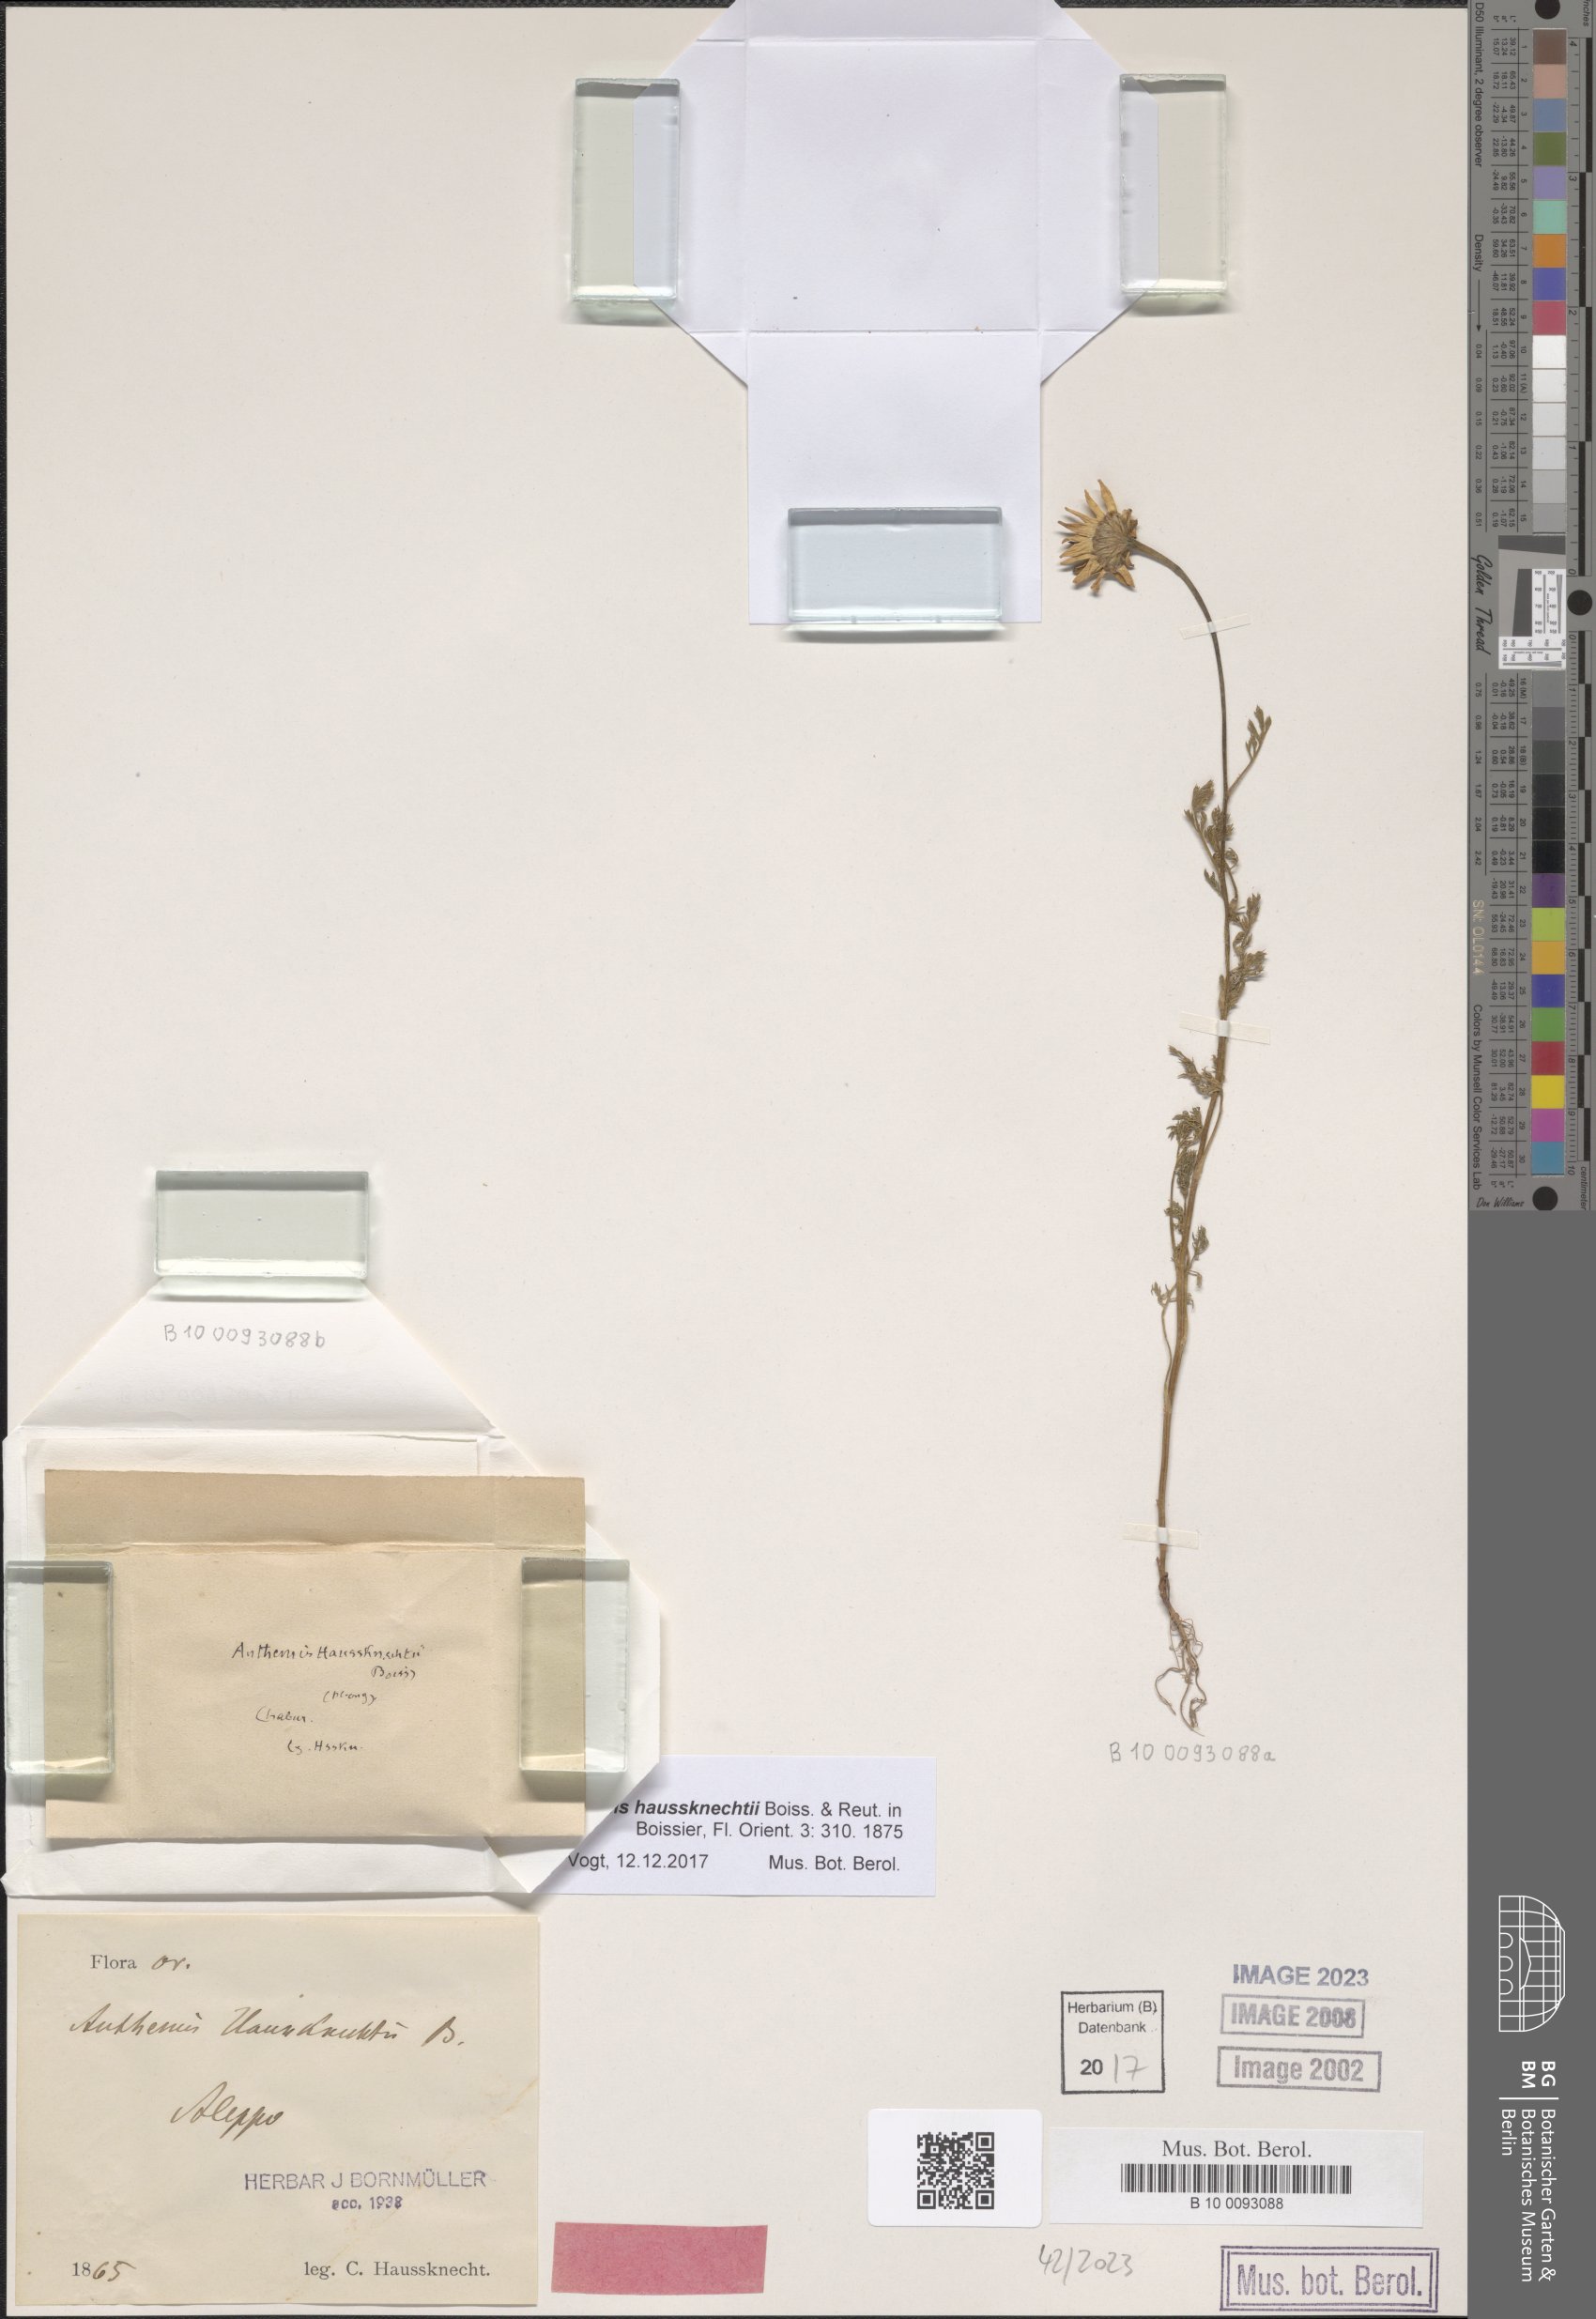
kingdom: Plantae
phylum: Tracheophyta
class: Magnoliopsida
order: Asterales
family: Asteraceae
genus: Anthemis
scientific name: Anthemis haussknechtii
